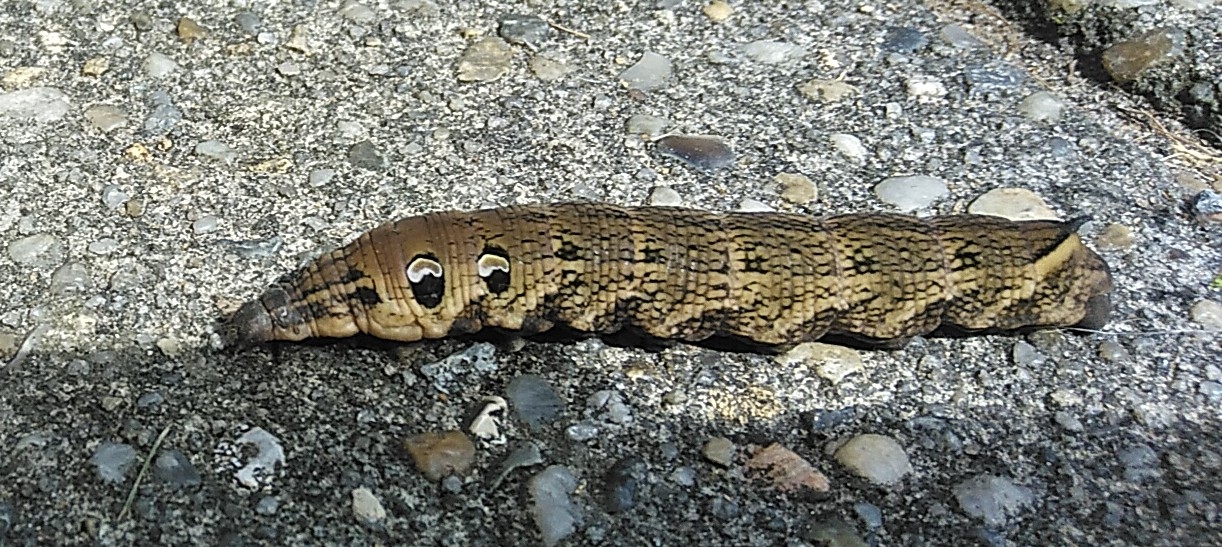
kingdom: Animalia
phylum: Arthropoda
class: Insecta
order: Lepidoptera
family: Sphingidae
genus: Deilephila
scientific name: Deilephila elpenor
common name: Dueurtsværmer
